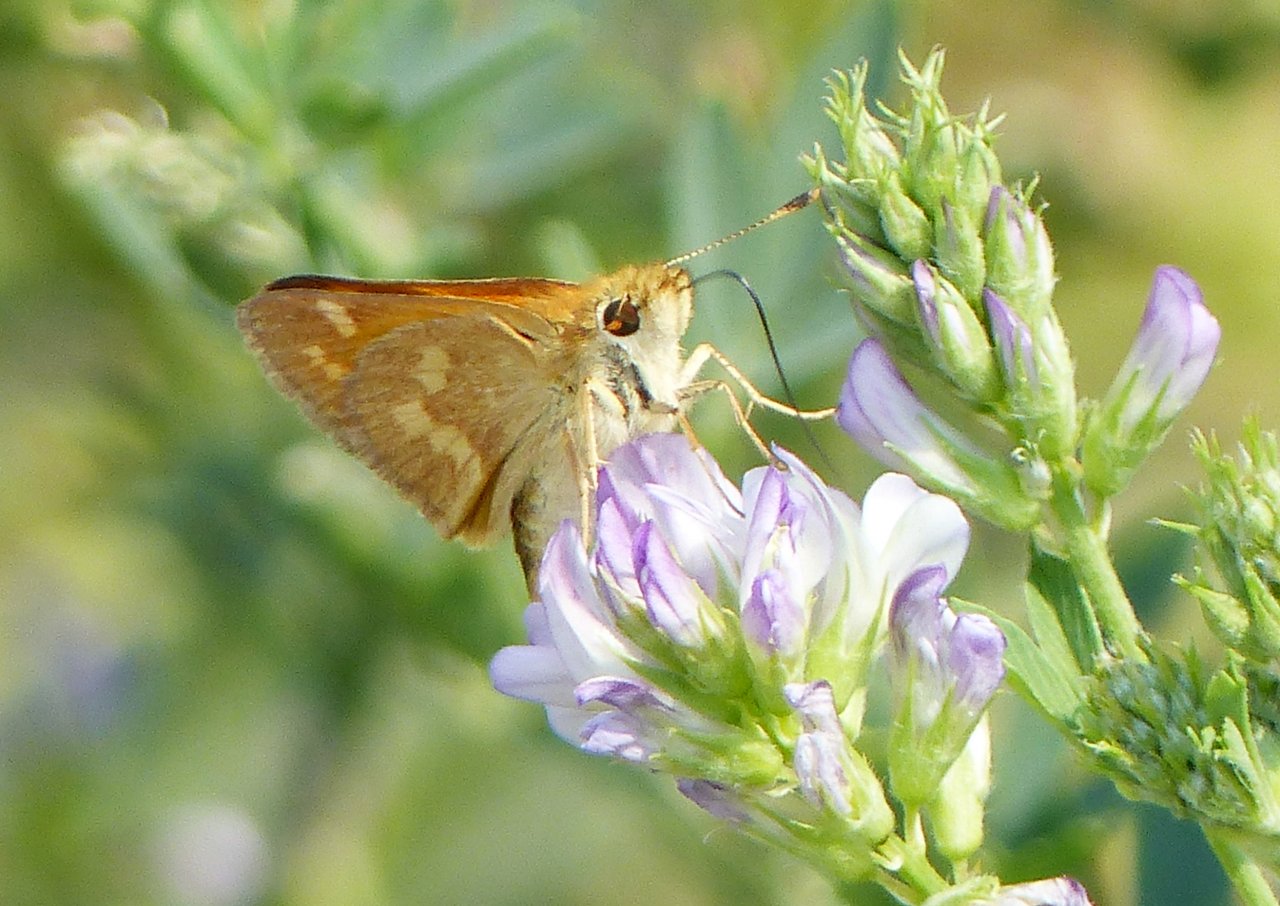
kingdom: Animalia
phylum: Arthropoda
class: Insecta
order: Lepidoptera
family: Hesperiidae
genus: Ochlodes
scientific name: Ochlodes sylvanoides
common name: Woodland Skipper
